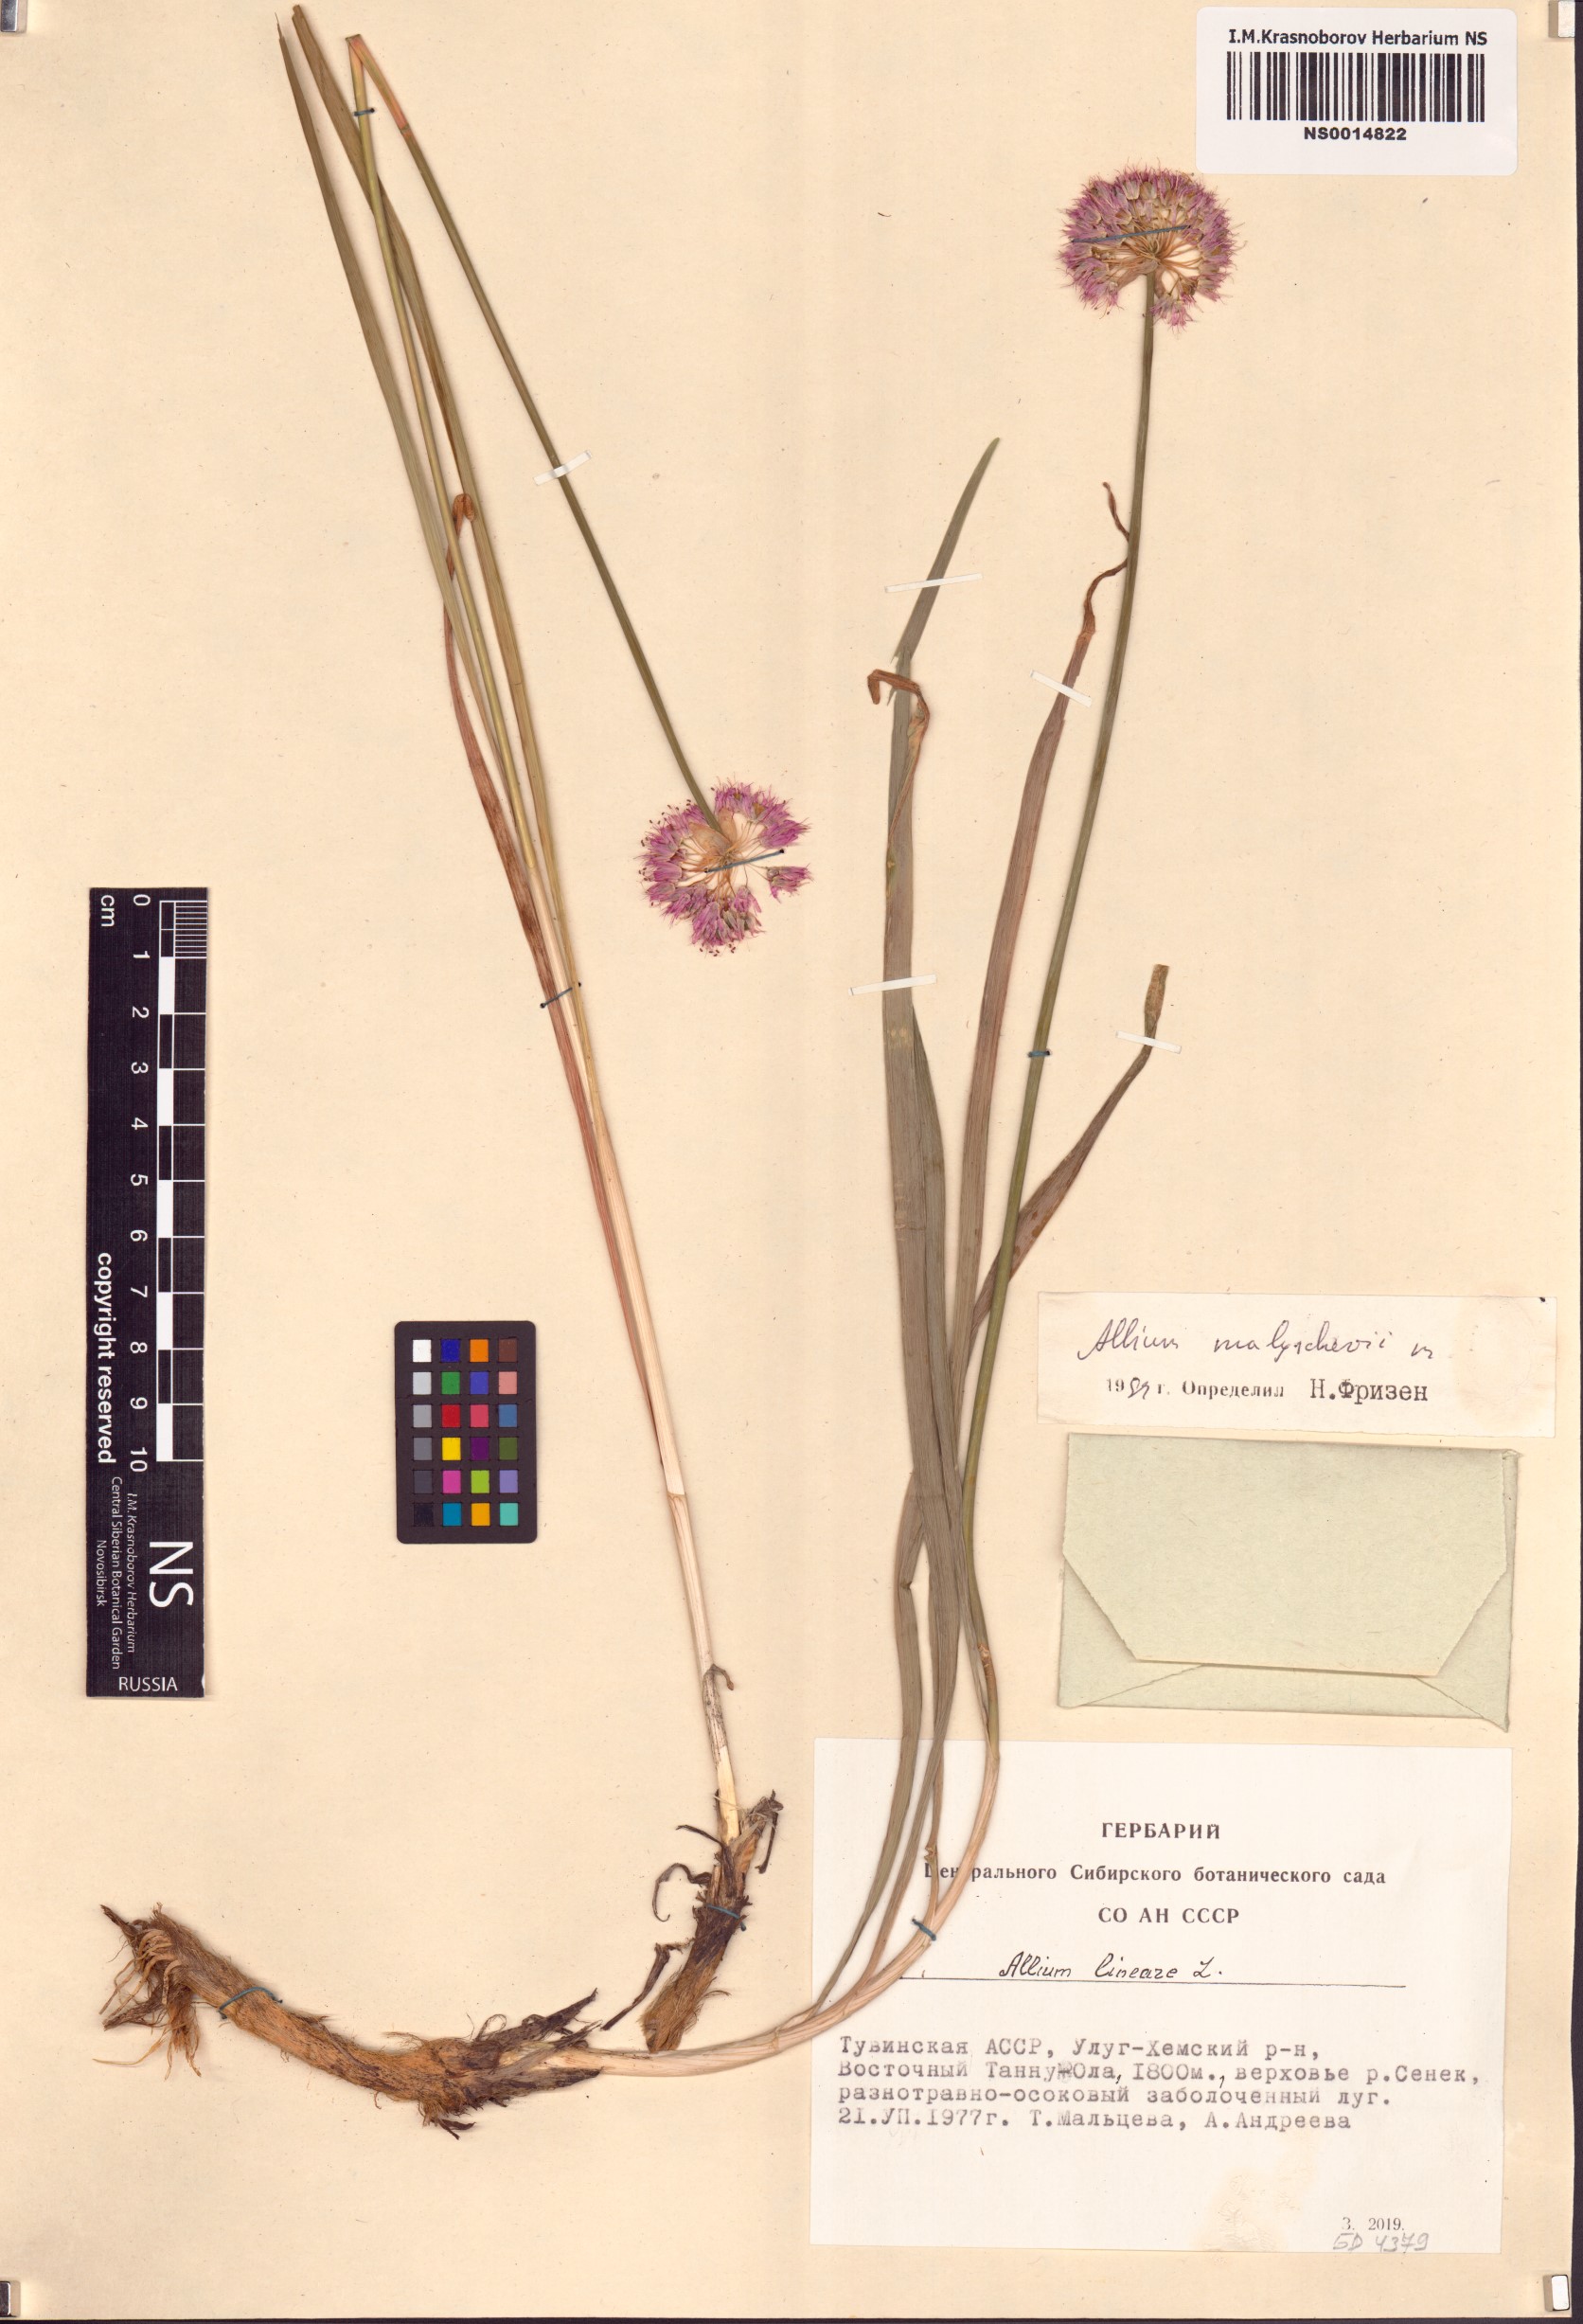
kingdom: Plantae
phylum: Tracheophyta
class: Liliopsida
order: Asparagales
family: Amaryllidaceae
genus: Allium
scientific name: Allium malyschevii
